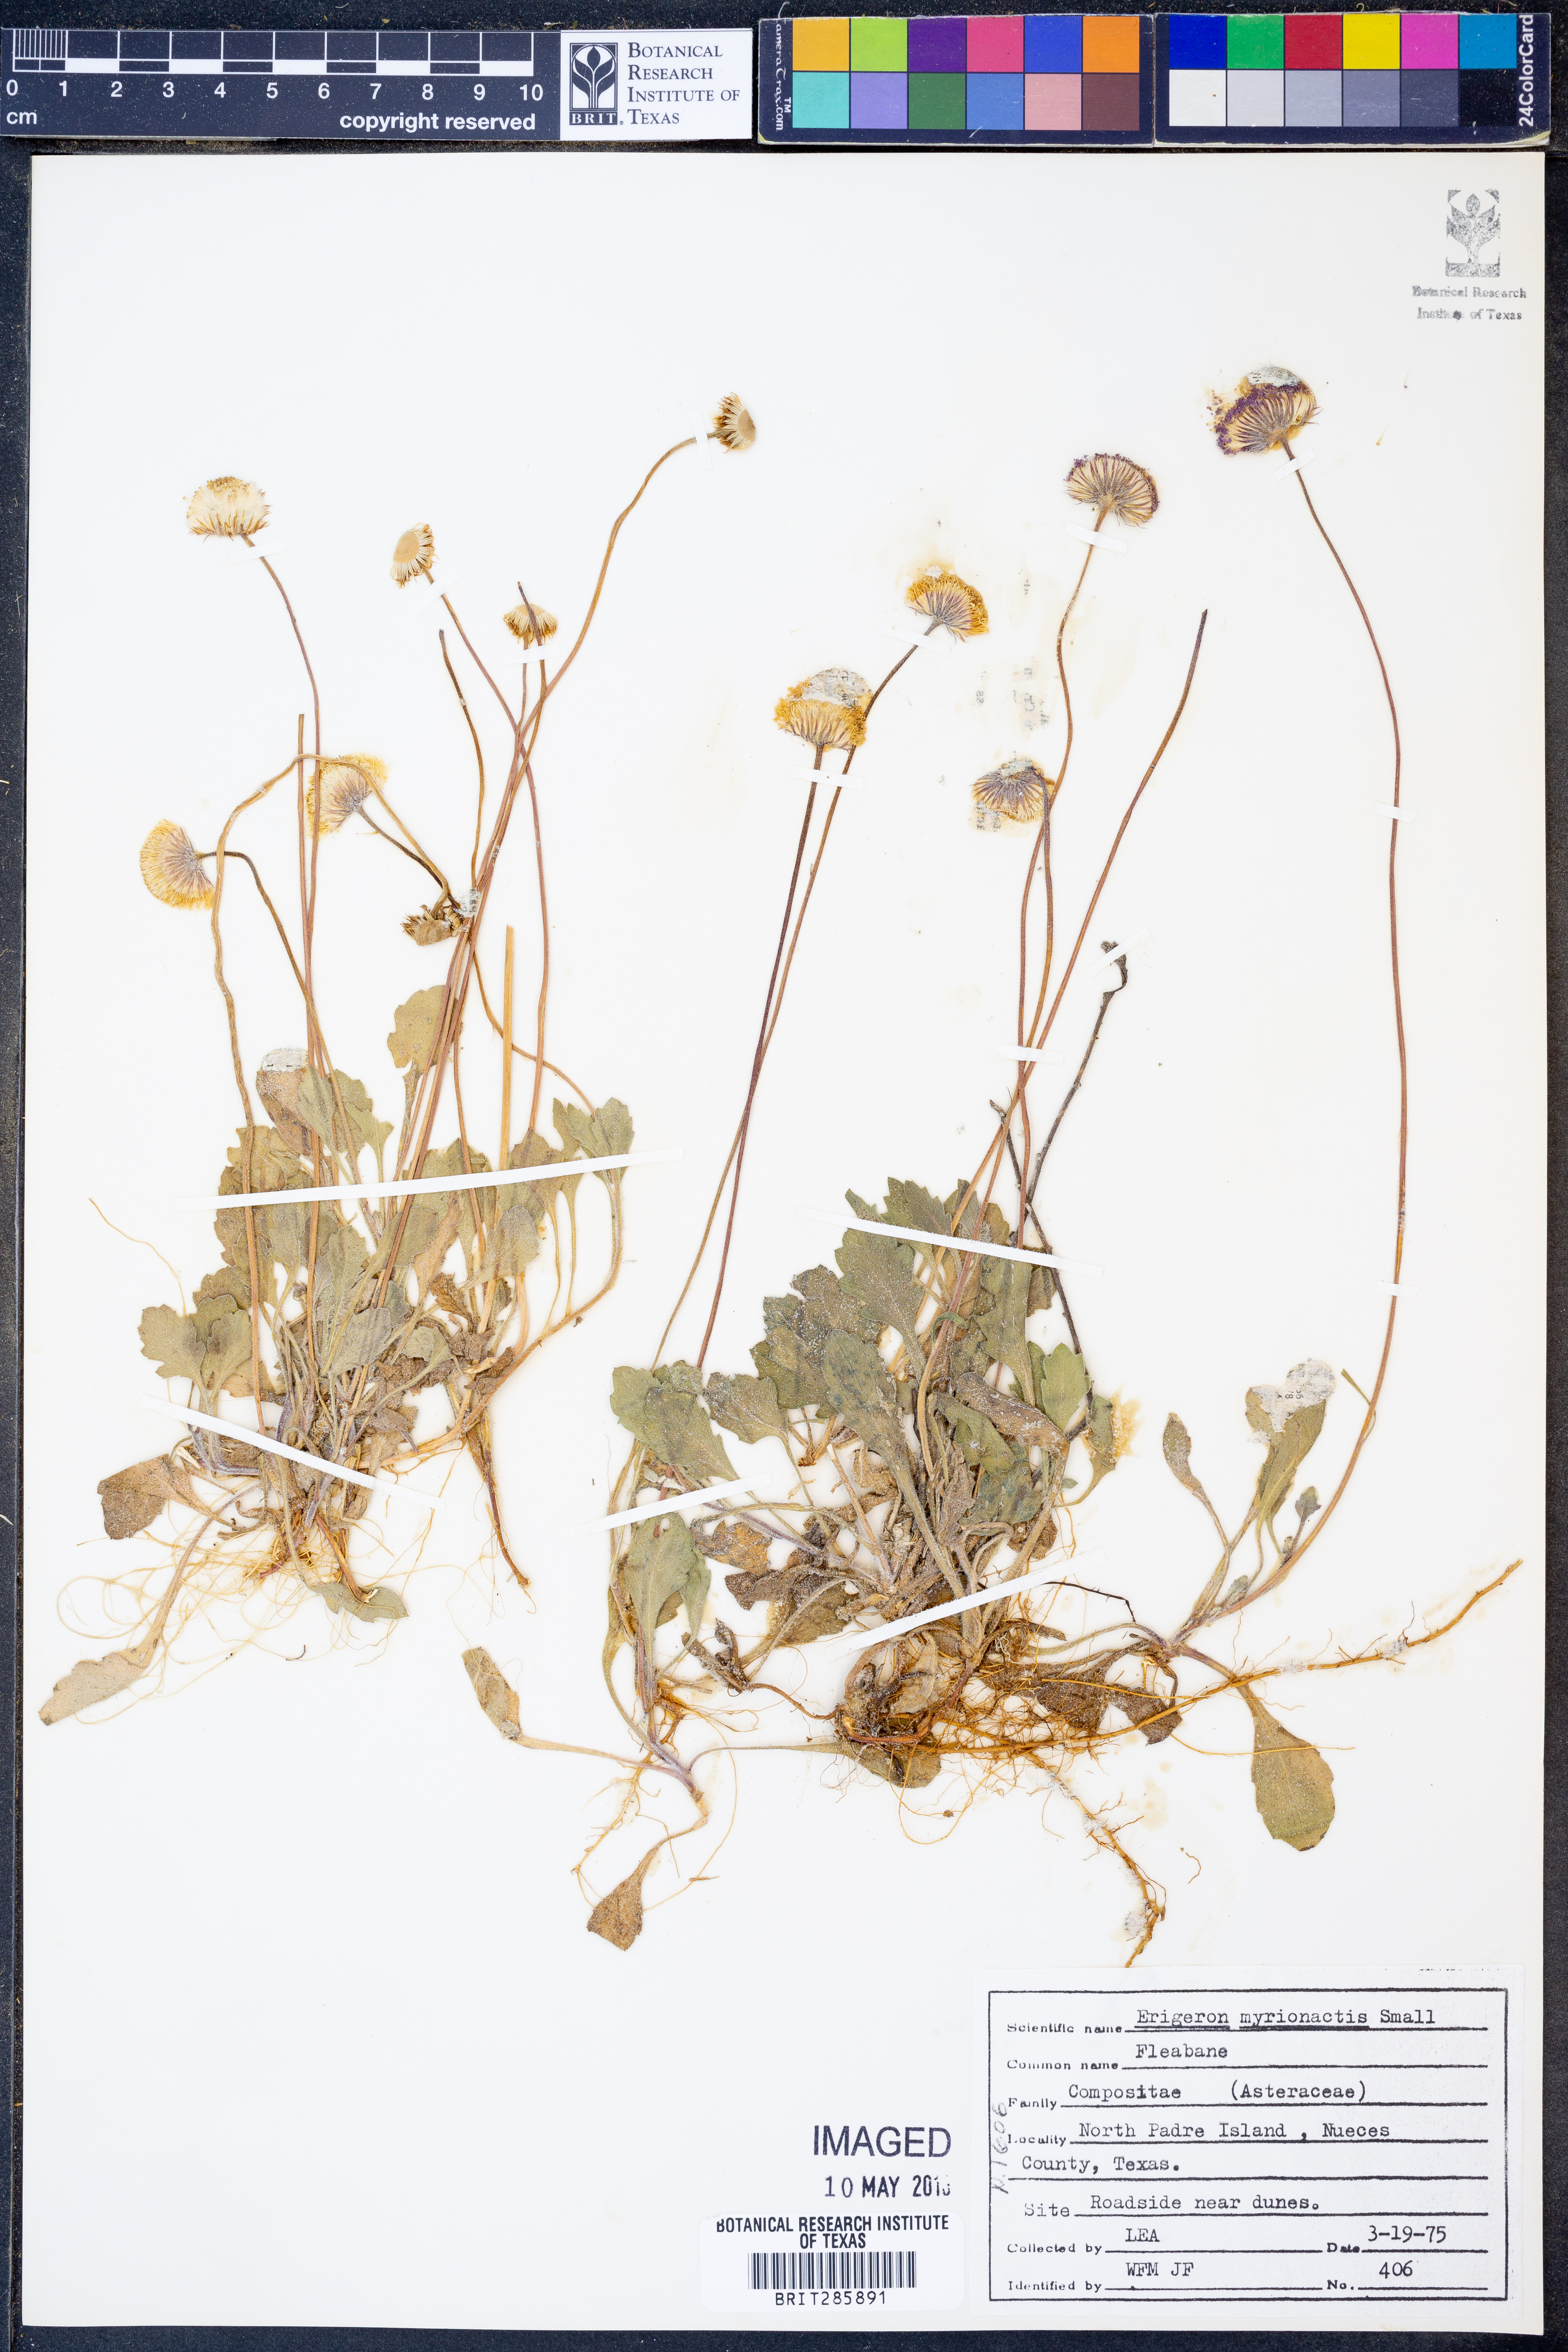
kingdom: Plantae
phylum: Tracheophyta
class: Magnoliopsida
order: Asterales
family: Asteraceae
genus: Erigeron
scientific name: Erigeron procumbens
